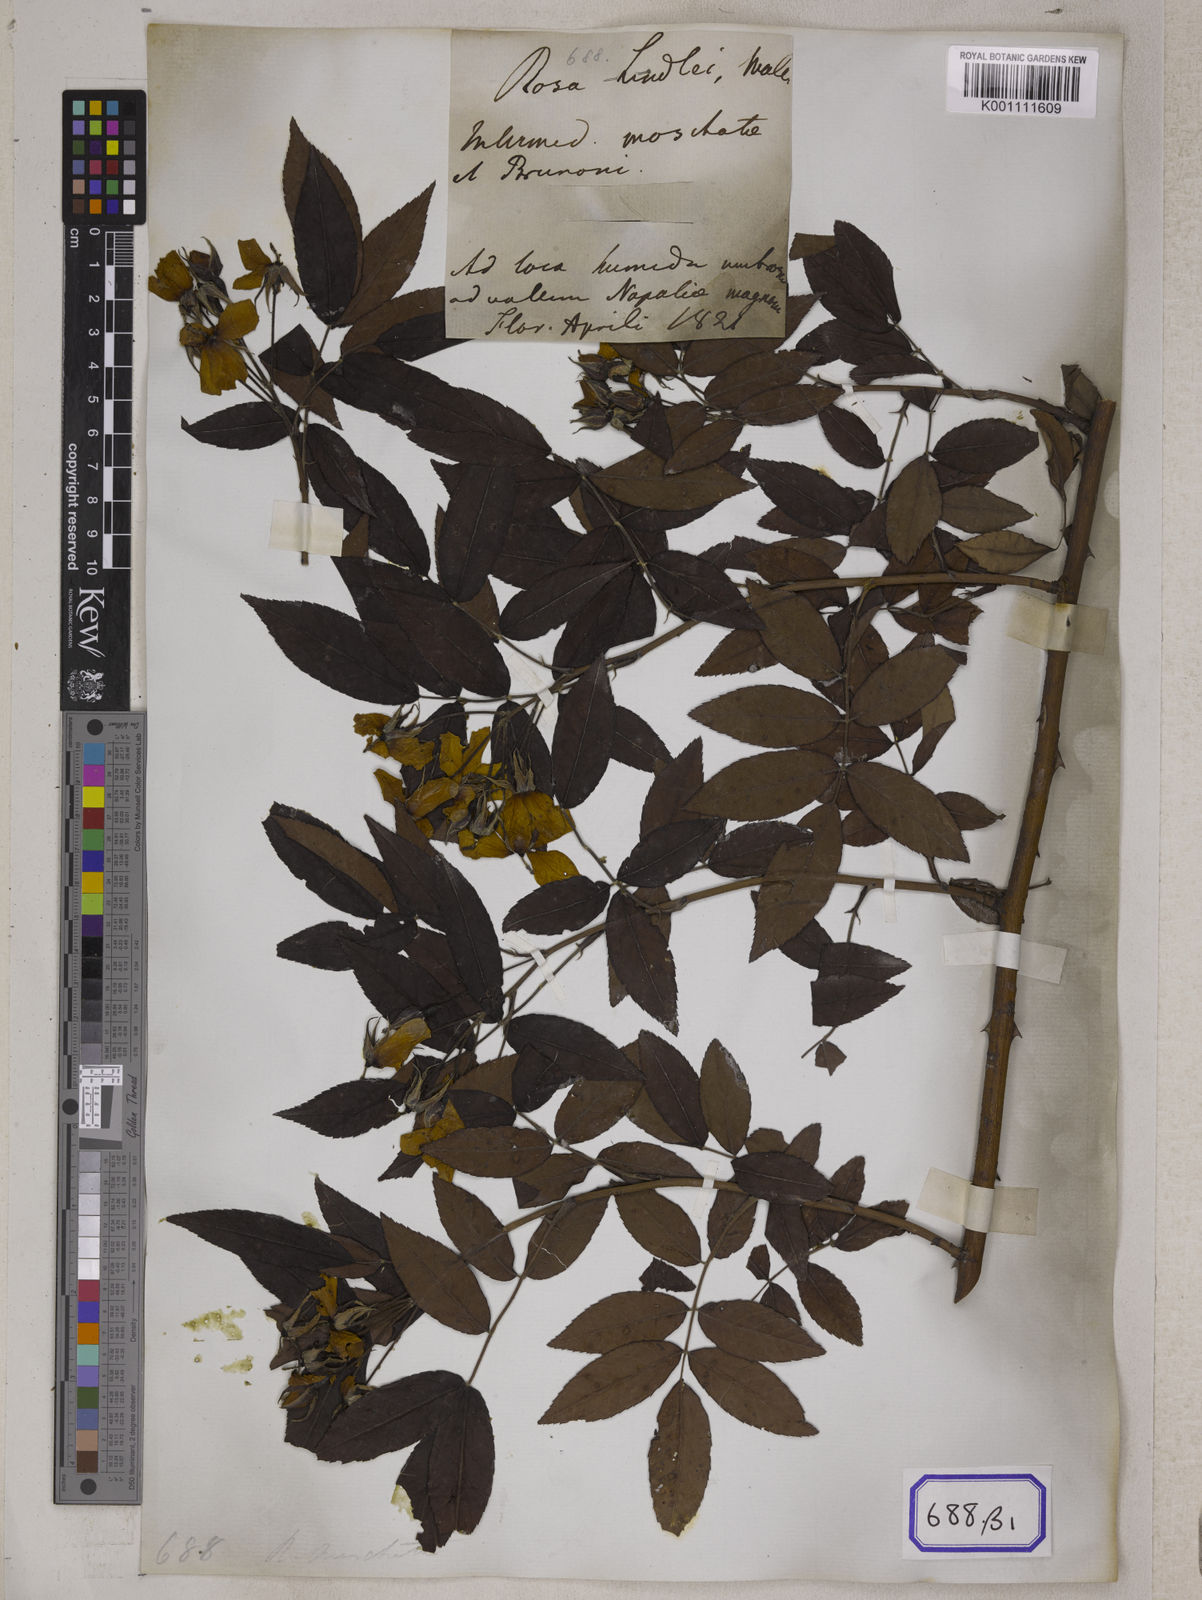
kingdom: Plantae
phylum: Tracheophyta
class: Magnoliopsida
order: Rosales
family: Rosaceae
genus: Rosa
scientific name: Rosa
